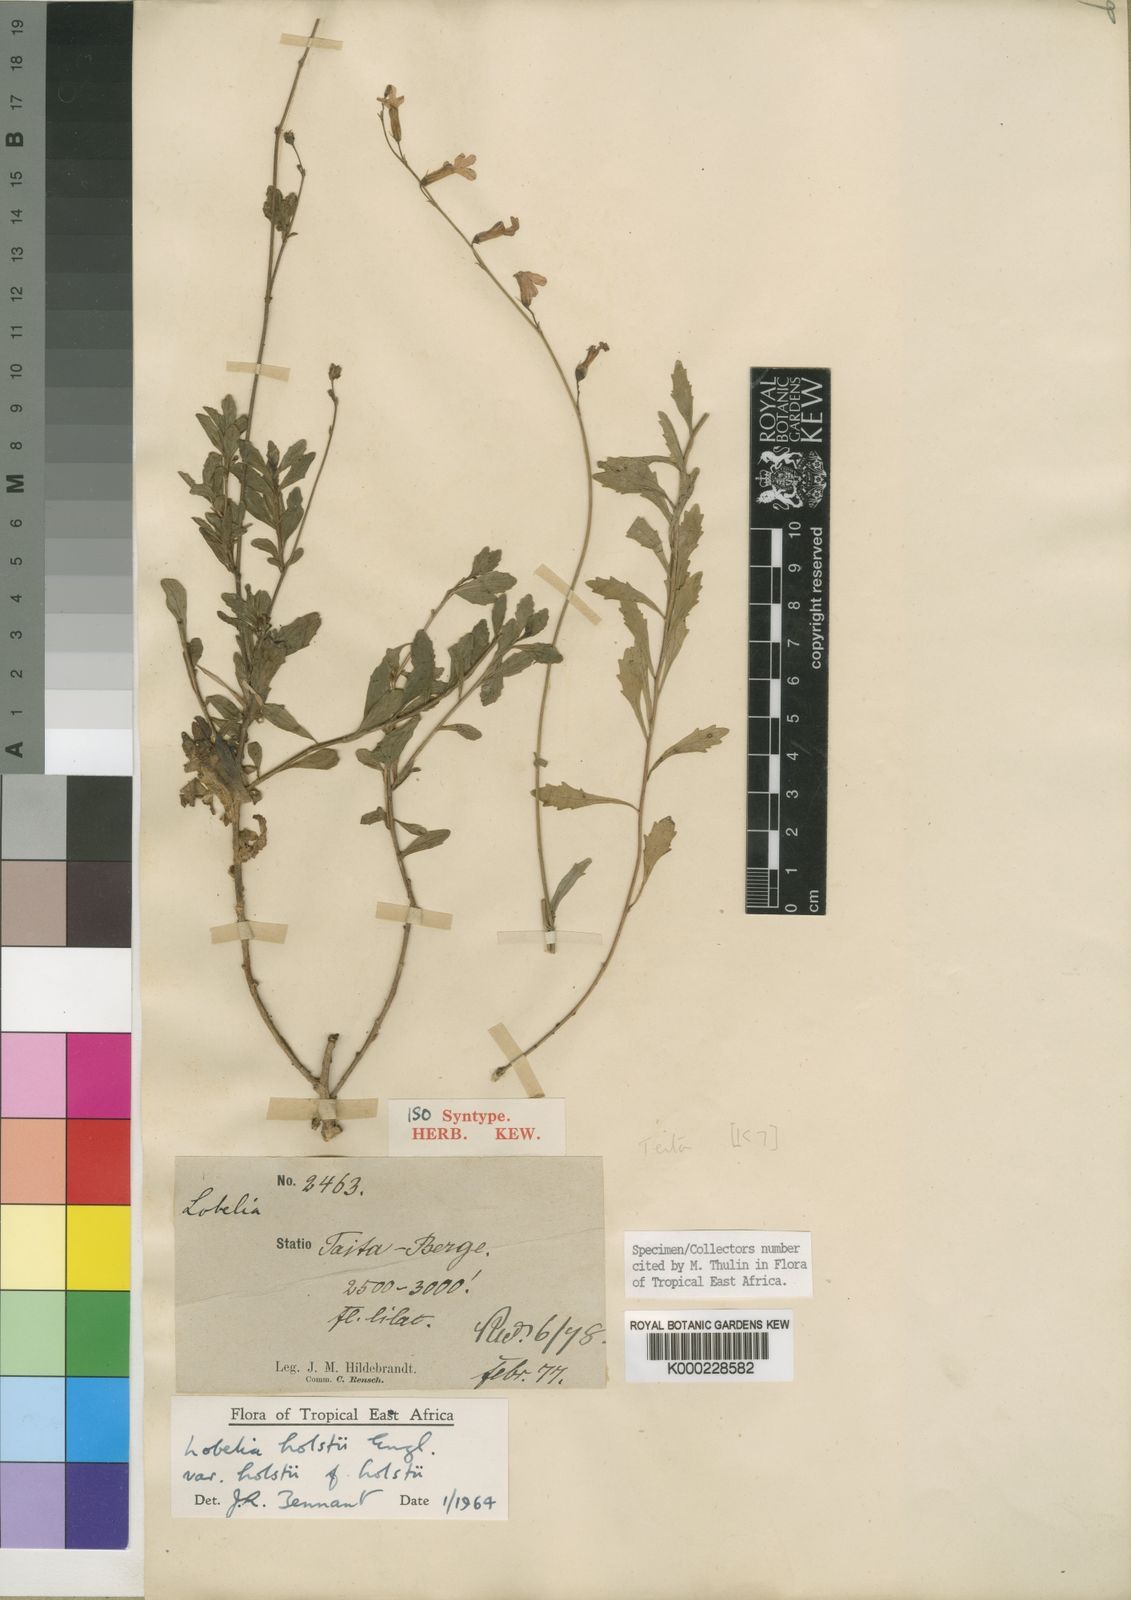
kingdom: Plantae
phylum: Tracheophyta
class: Magnoliopsida
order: Asterales
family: Campanulaceae
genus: Lobelia
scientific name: Lobelia holstii
